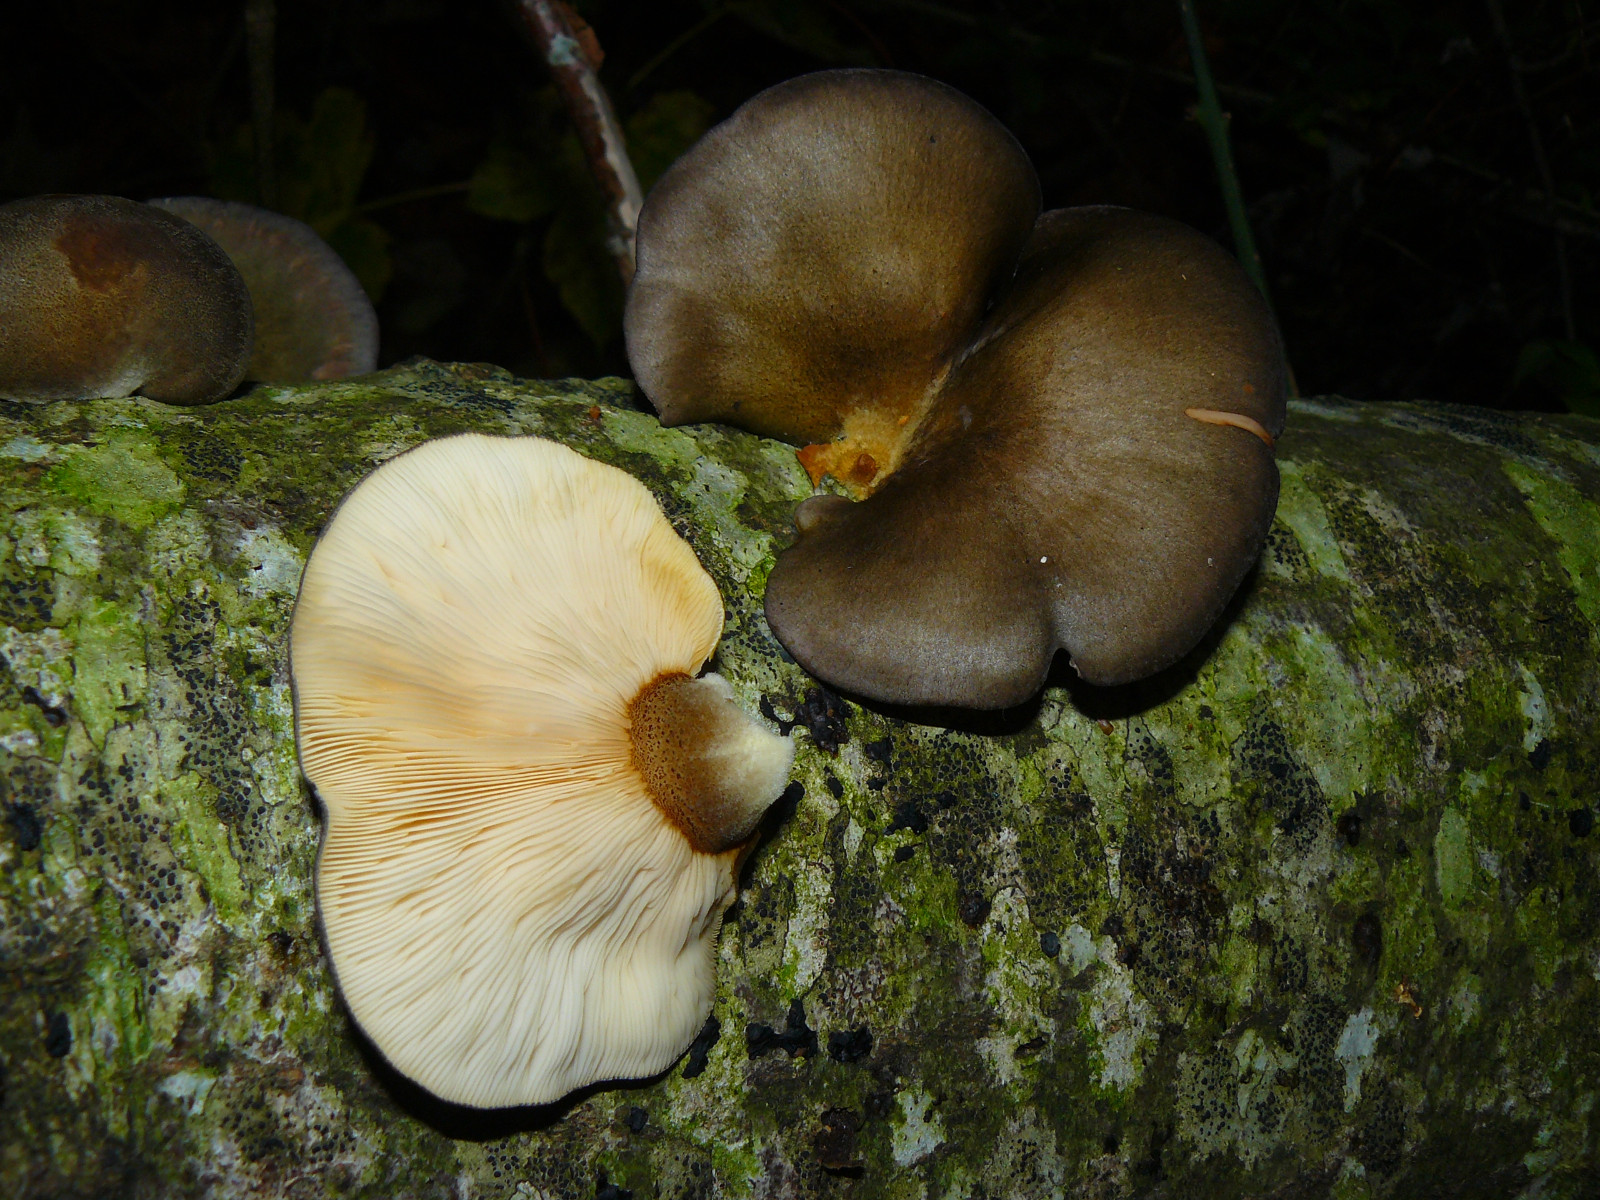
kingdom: Fungi
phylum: Basidiomycota
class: Agaricomycetes
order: Agaricales
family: Sarcomyxaceae
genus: Sarcomyxa
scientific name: Sarcomyxa serotina
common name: gummihat
